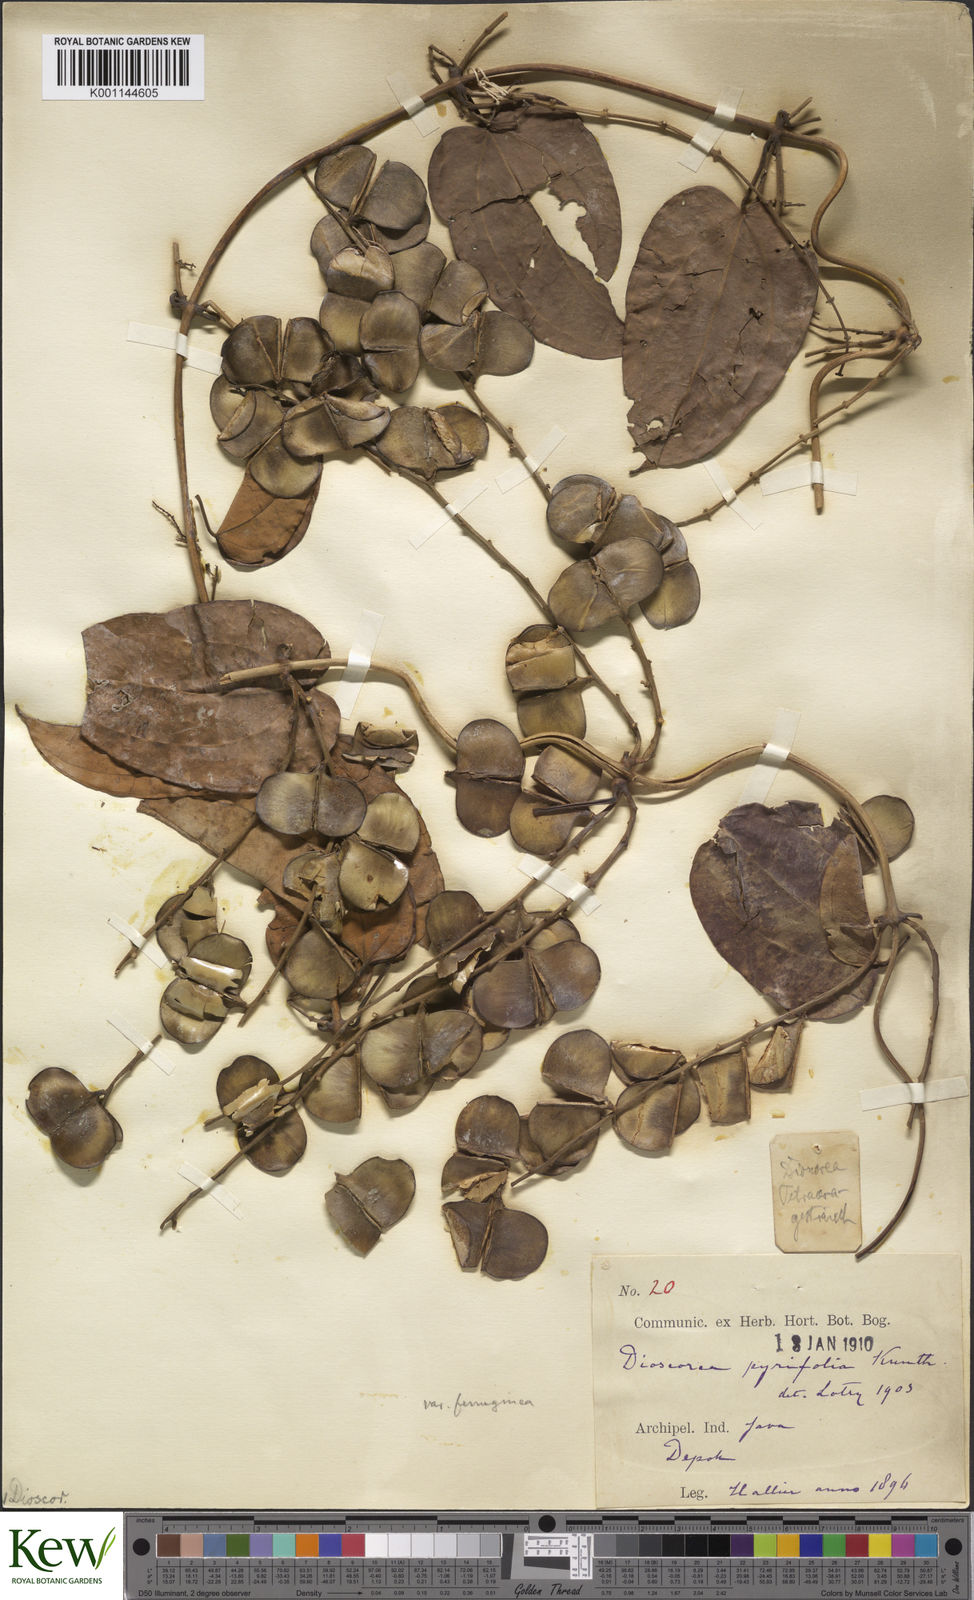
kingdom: Plantae
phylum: Tracheophyta
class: Liliopsida
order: Dioscoreales
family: Dioscoreaceae
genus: Dioscorea
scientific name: Dioscorea pyrifolia
